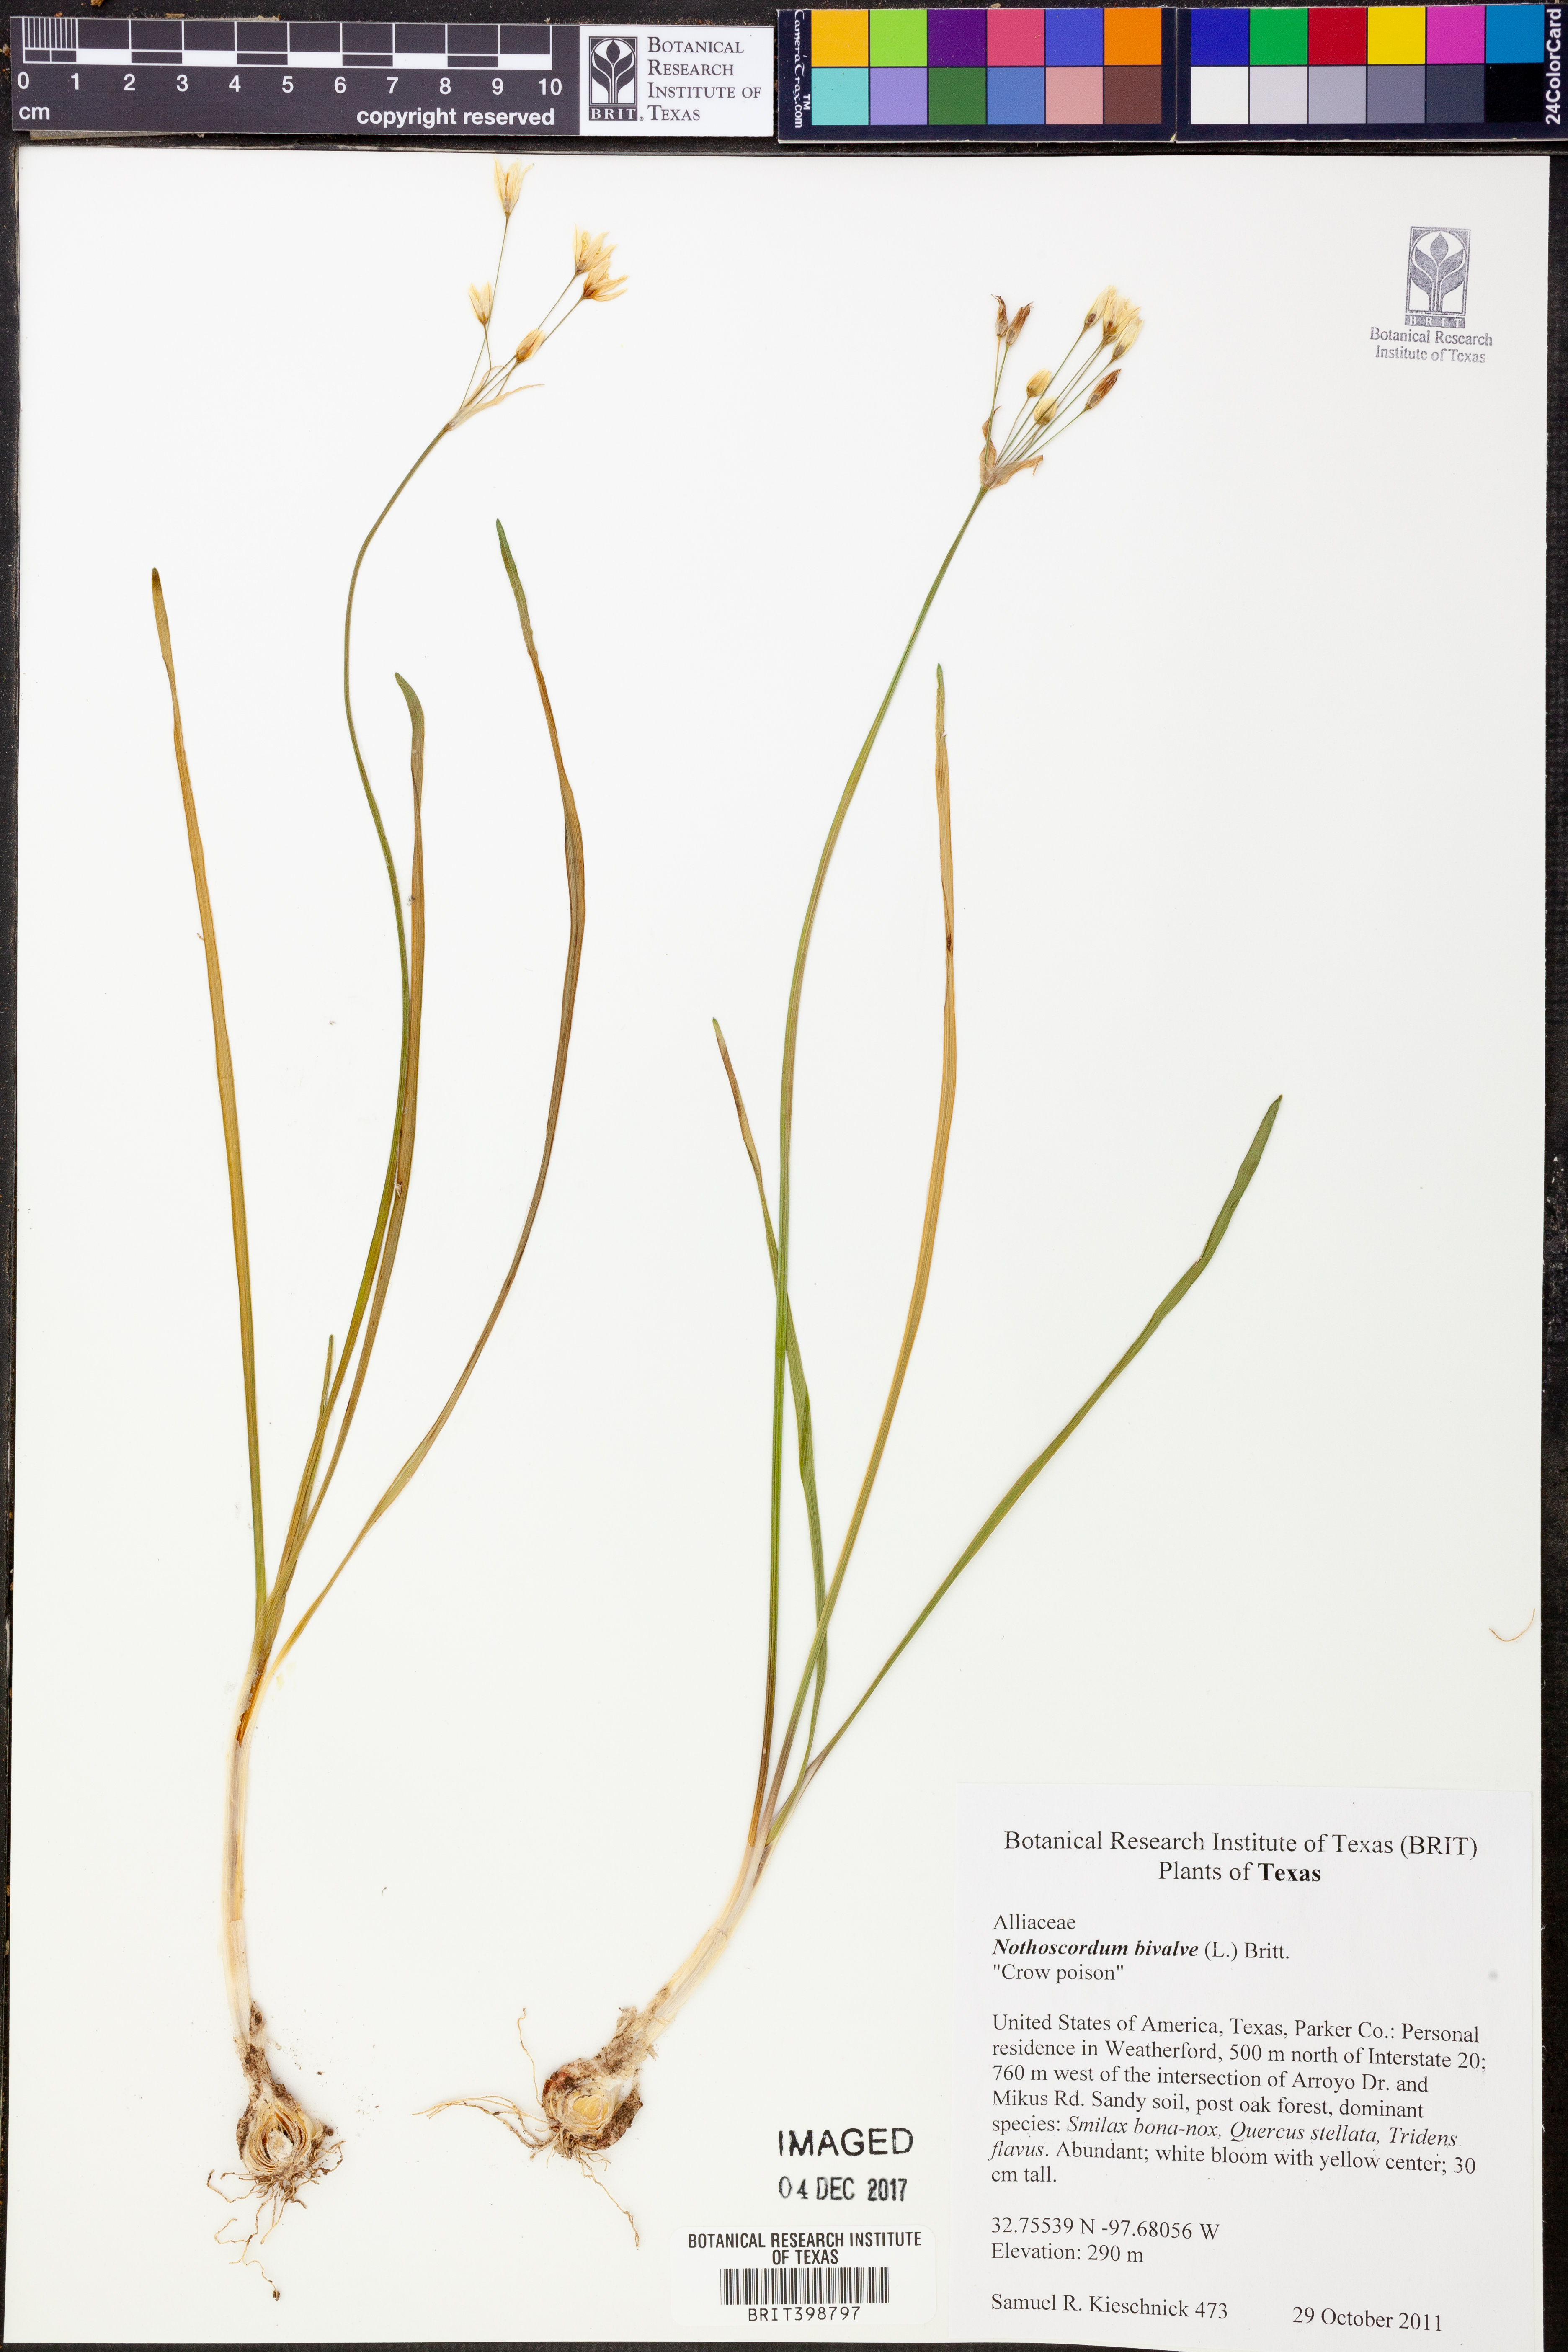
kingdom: Plantae
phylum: Tracheophyta
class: Liliopsida
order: Asparagales
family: Amaryllidaceae
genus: Nothoscordum
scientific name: Nothoscordum bivalve
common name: Crow-poison
